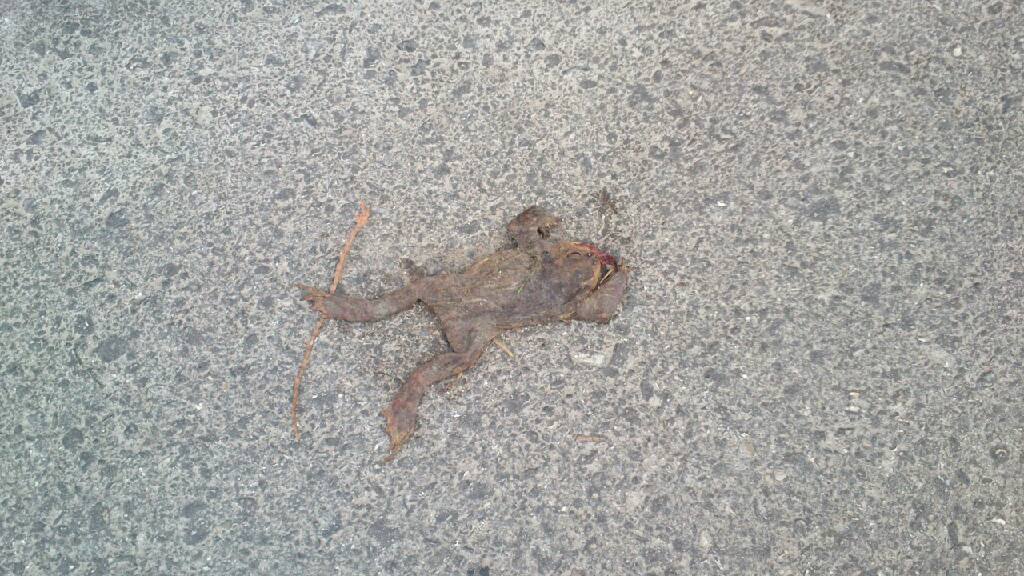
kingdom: Animalia
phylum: Chordata
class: Amphibia
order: Anura
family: Bufonidae
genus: Bufo
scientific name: Bufo bufo
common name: Common toad
